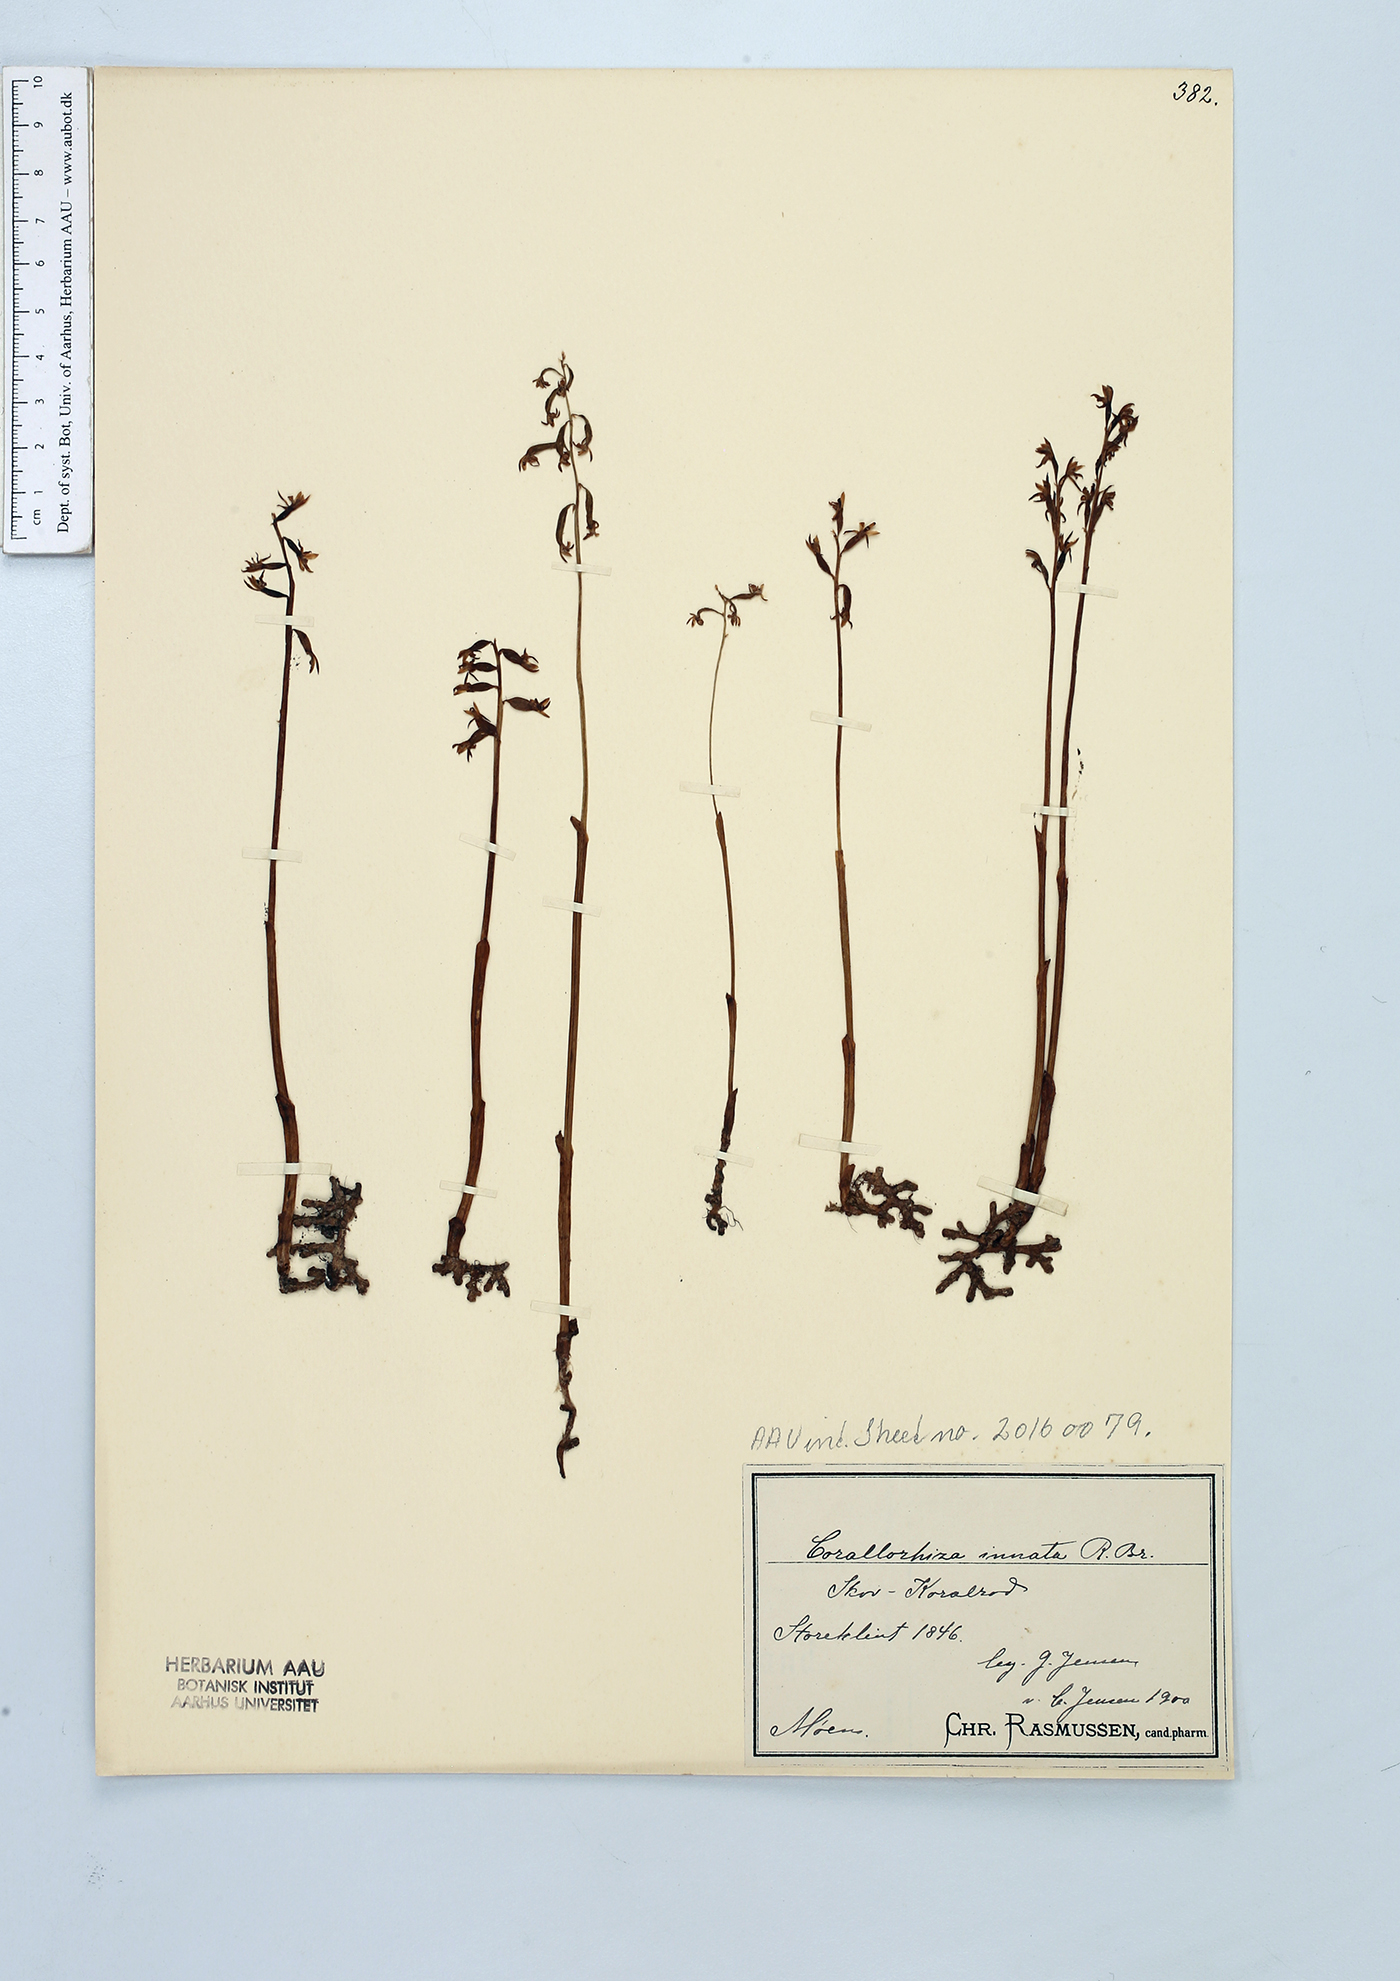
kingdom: Plantae
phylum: Tracheophyta
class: Liliopsida
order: Asparagales
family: Orchidaceae
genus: Corallorhiza
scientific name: Corallorhiza trifida
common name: Yellow coralroot
